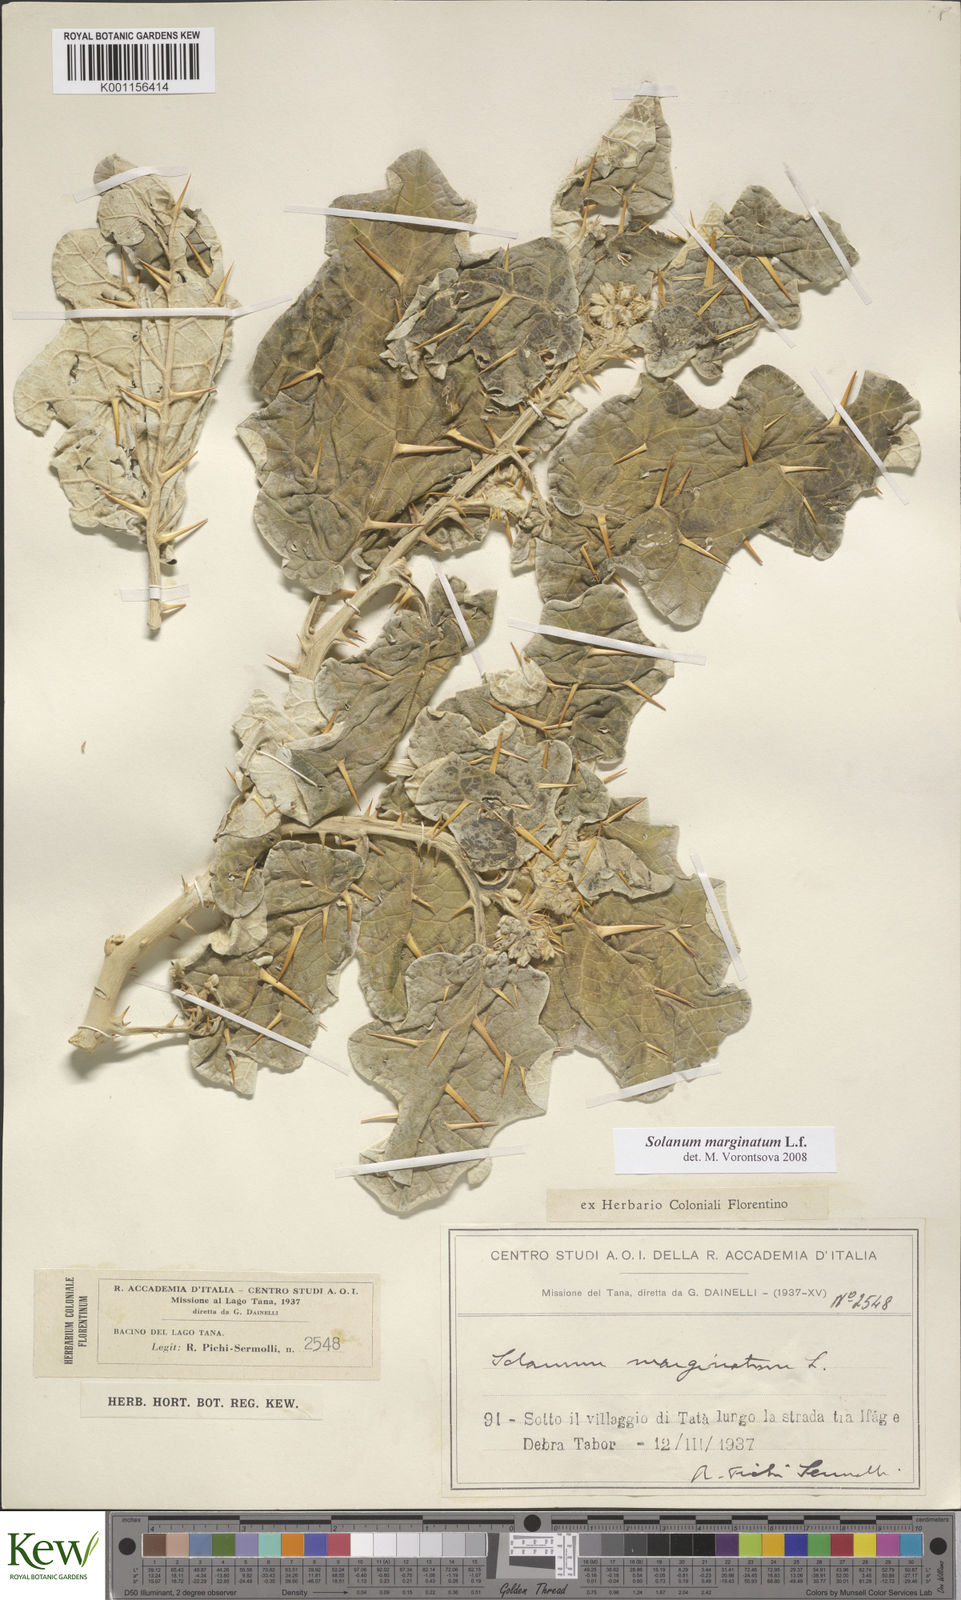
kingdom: Plantae
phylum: Tracheophyta
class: Magnoliopsida
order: Solanales
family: Solanaceae
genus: Solanum
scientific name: Solanum marginatum
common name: Purple african nightshade
